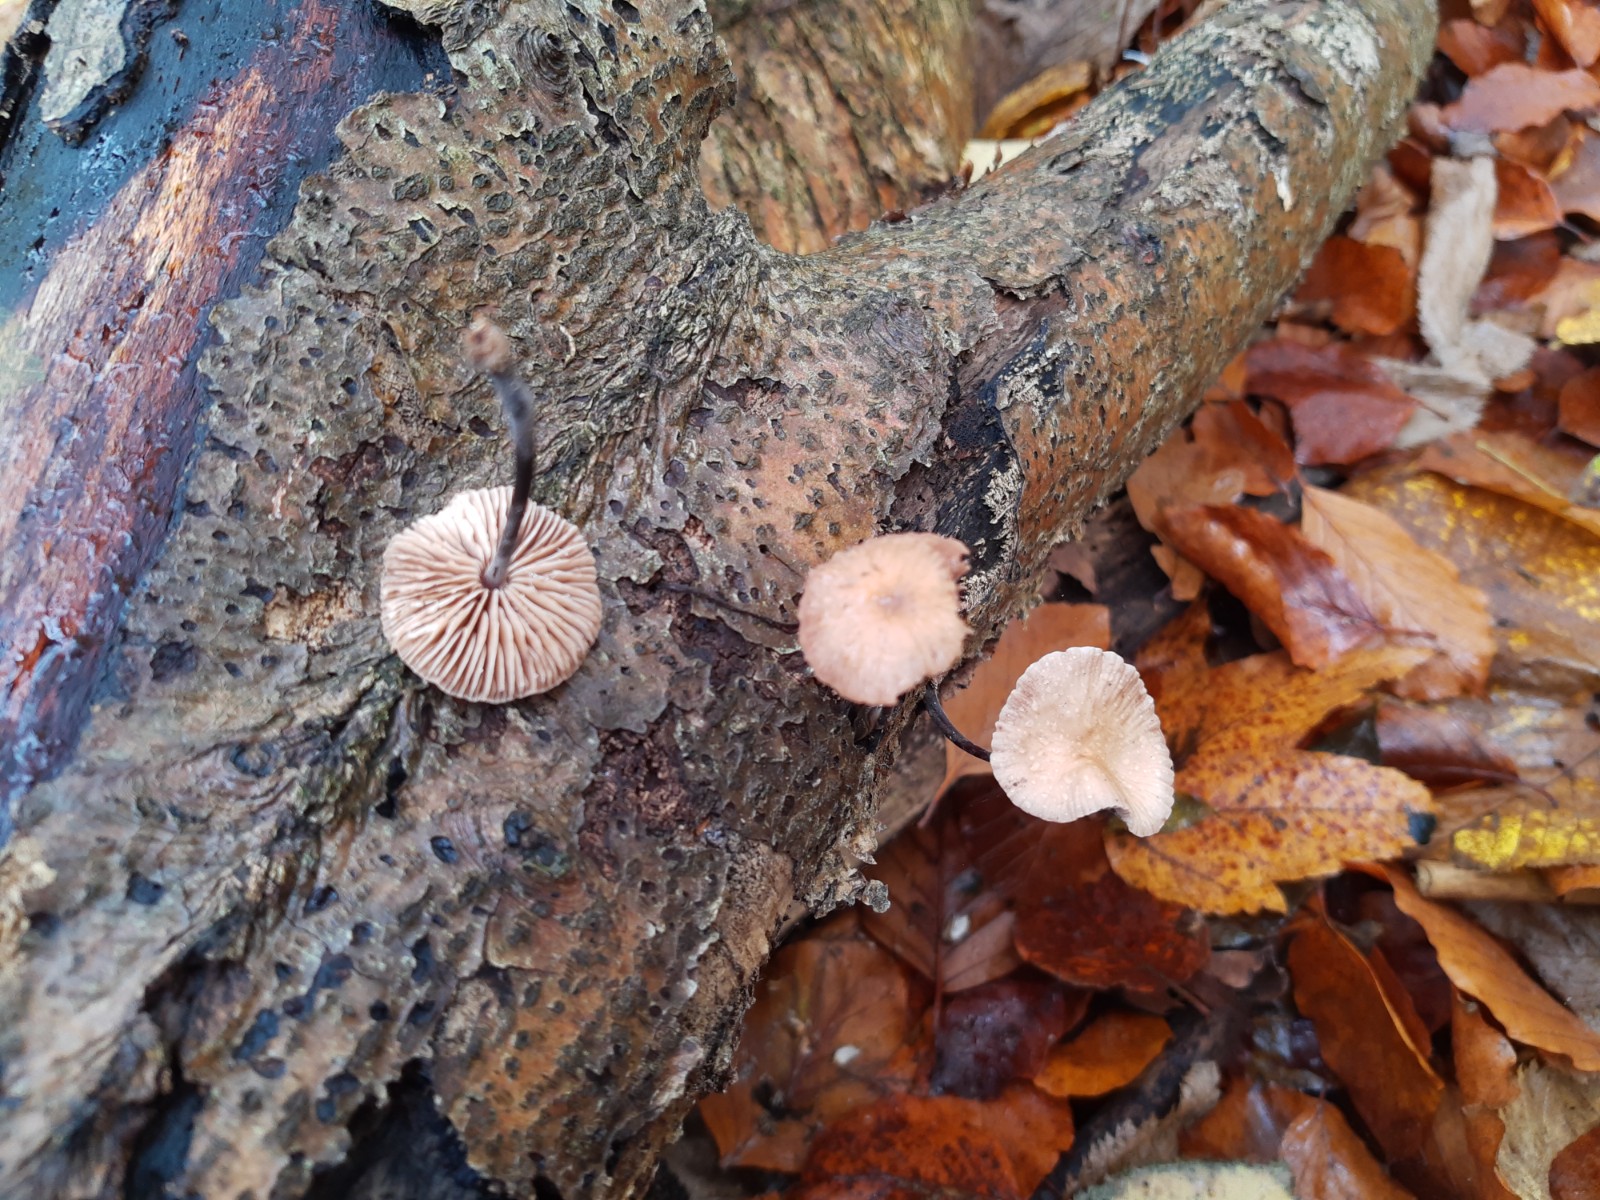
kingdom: Fungi
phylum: Basidiomycota
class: Agaricomycetes
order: Agaricales
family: Omphalotaceae
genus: Mycetinis
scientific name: Mycetinis scorodonius
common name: lille løghat
